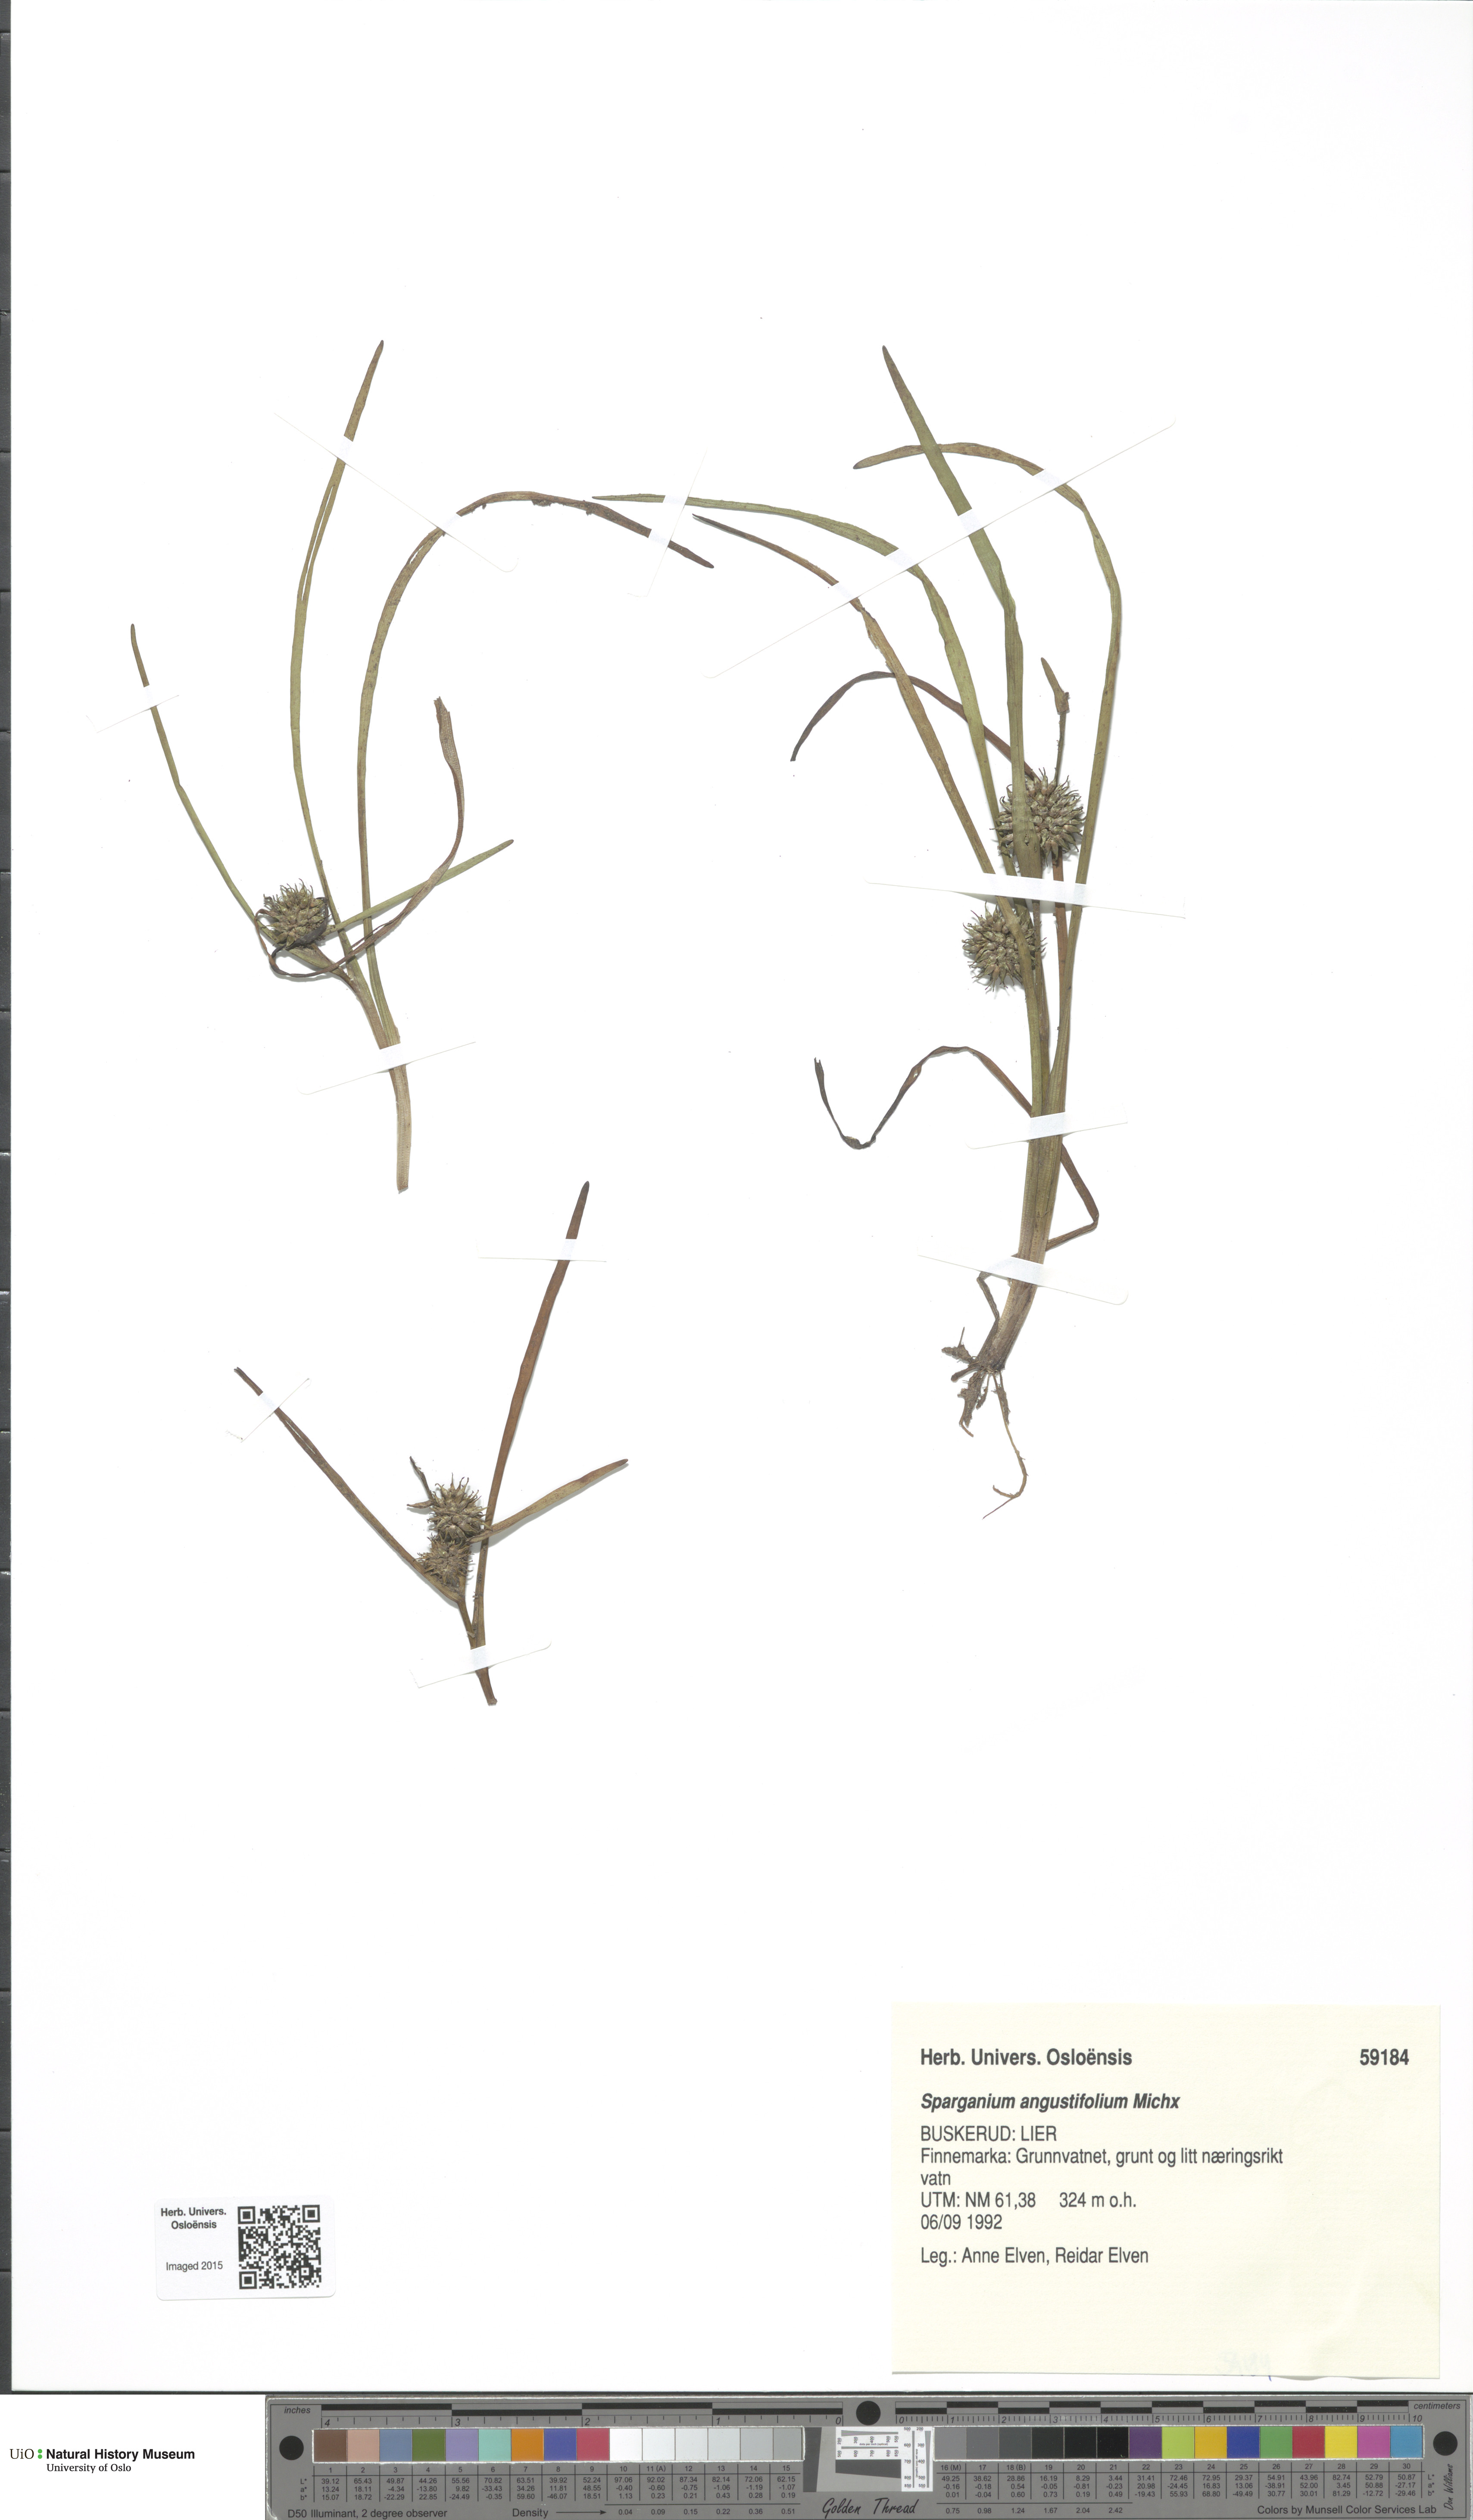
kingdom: Plantae
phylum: Tracheophyta
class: Liliopsida
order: Poales
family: Typhaceae
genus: Sparganium
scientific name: Sparganium angustifolium
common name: Floating bur-reed
